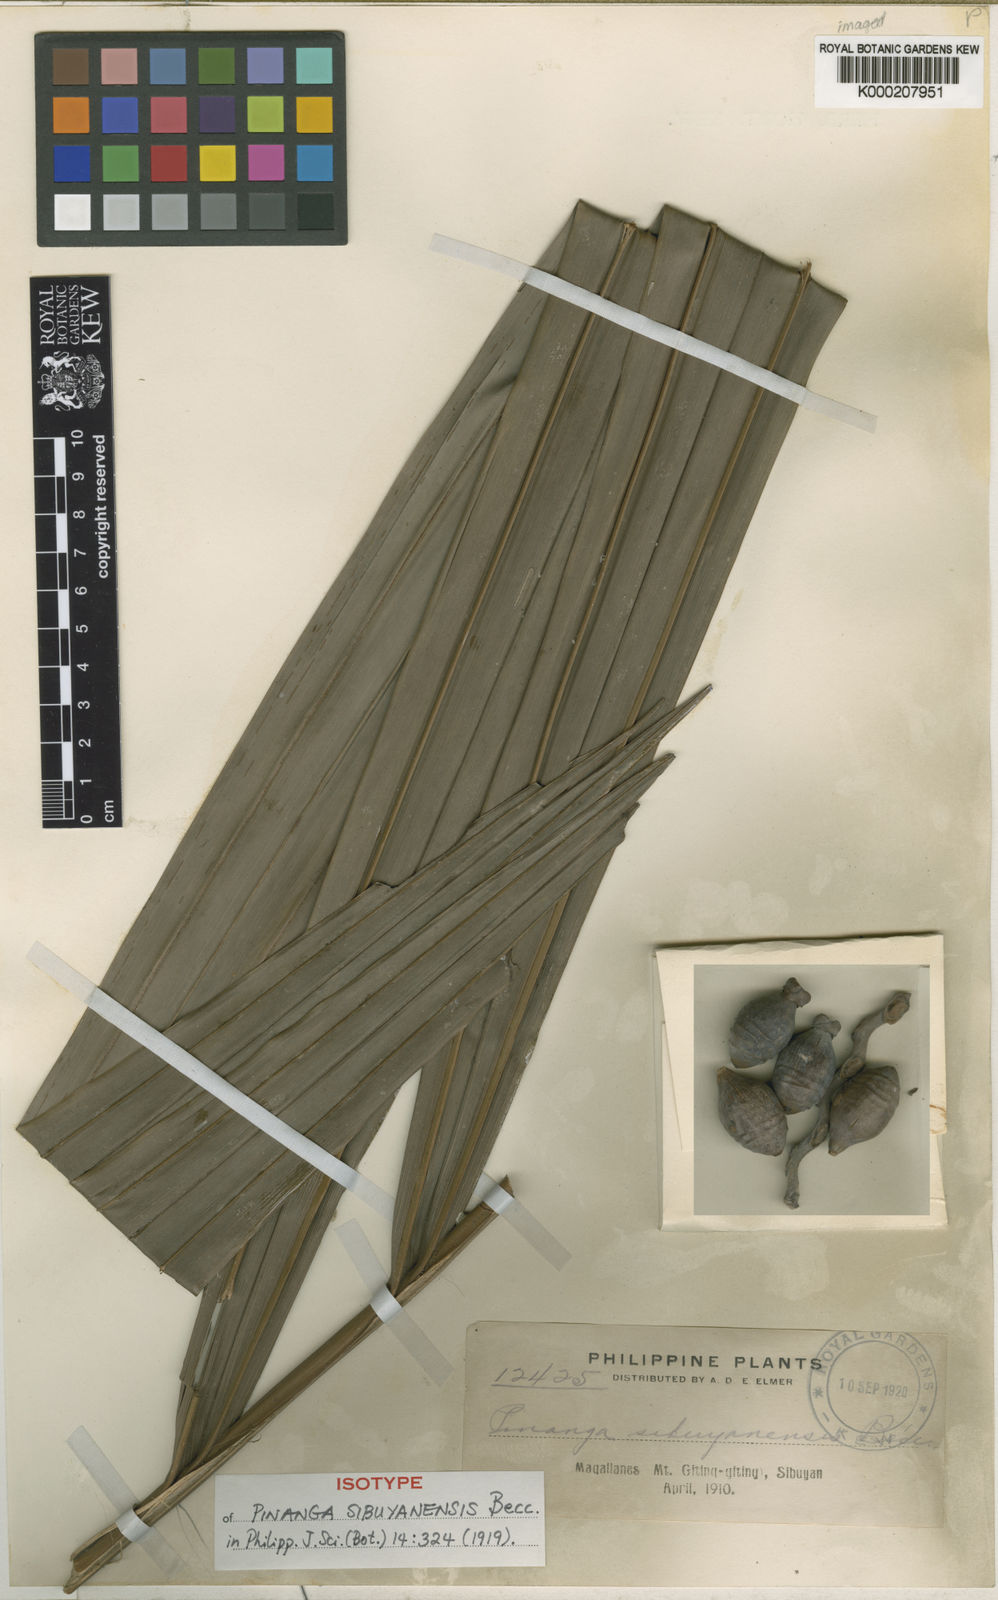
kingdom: Plantae
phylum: Tracheophyta
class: Liliopsida
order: Arecales
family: Arecaceae
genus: Pinanga
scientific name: Pinanga sibuyanensis
